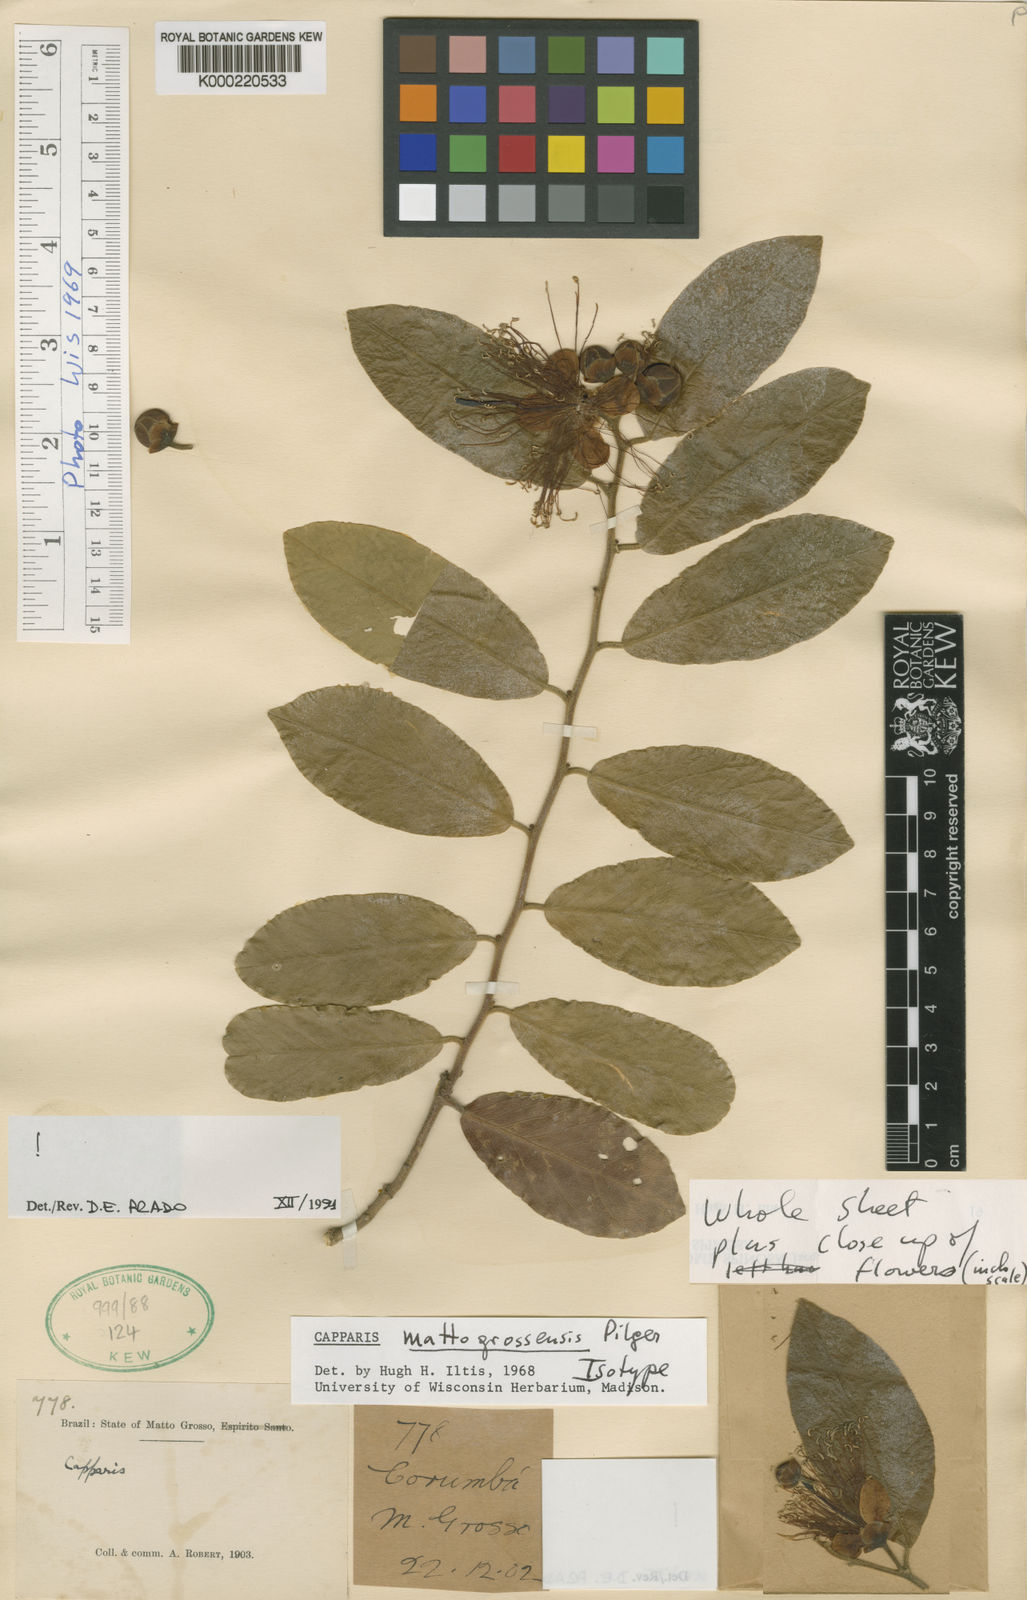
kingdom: Plantae
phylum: Tracheophyta
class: Magnoliopsida
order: Brassicales
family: Capparaceae
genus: Cynophalla
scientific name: Cynophalla mattogrossensis
